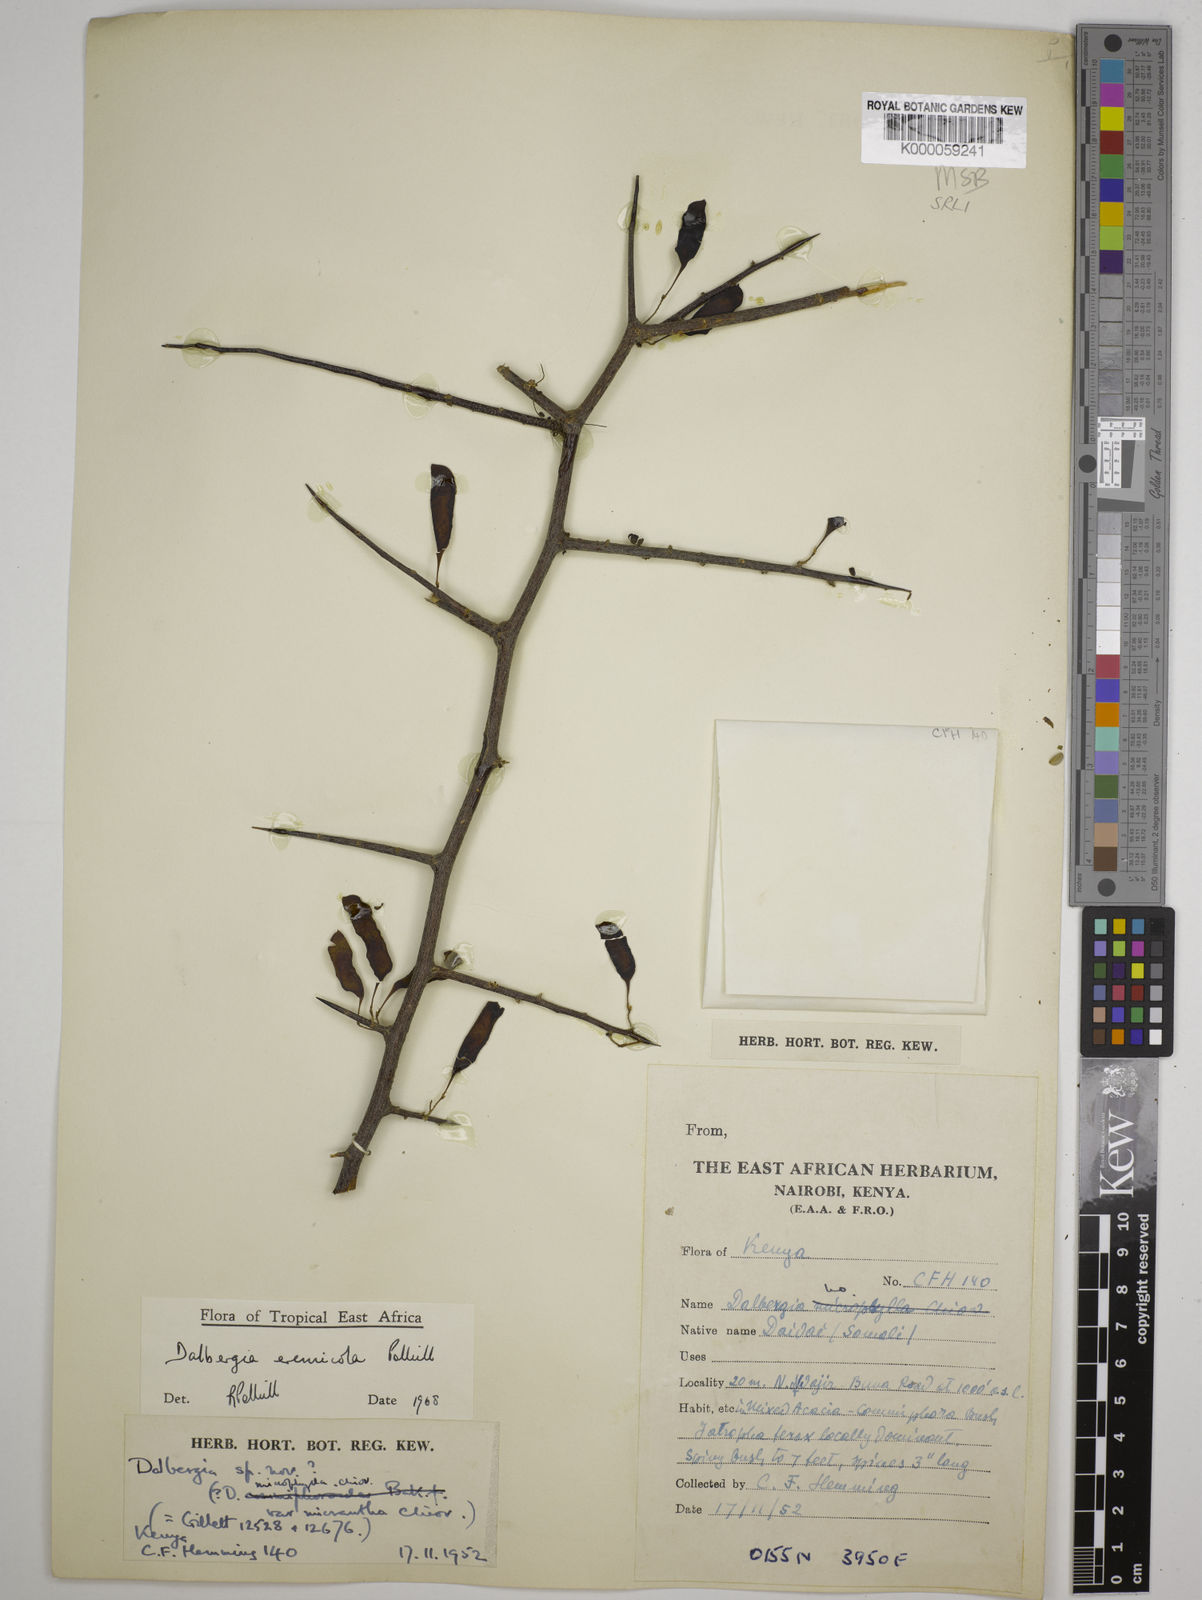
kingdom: Plantae
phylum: Tracheophyta
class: Magnoliopsida
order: Fabales
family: Fabaceae
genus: Dalbergia
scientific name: Dalbergia eremicola
